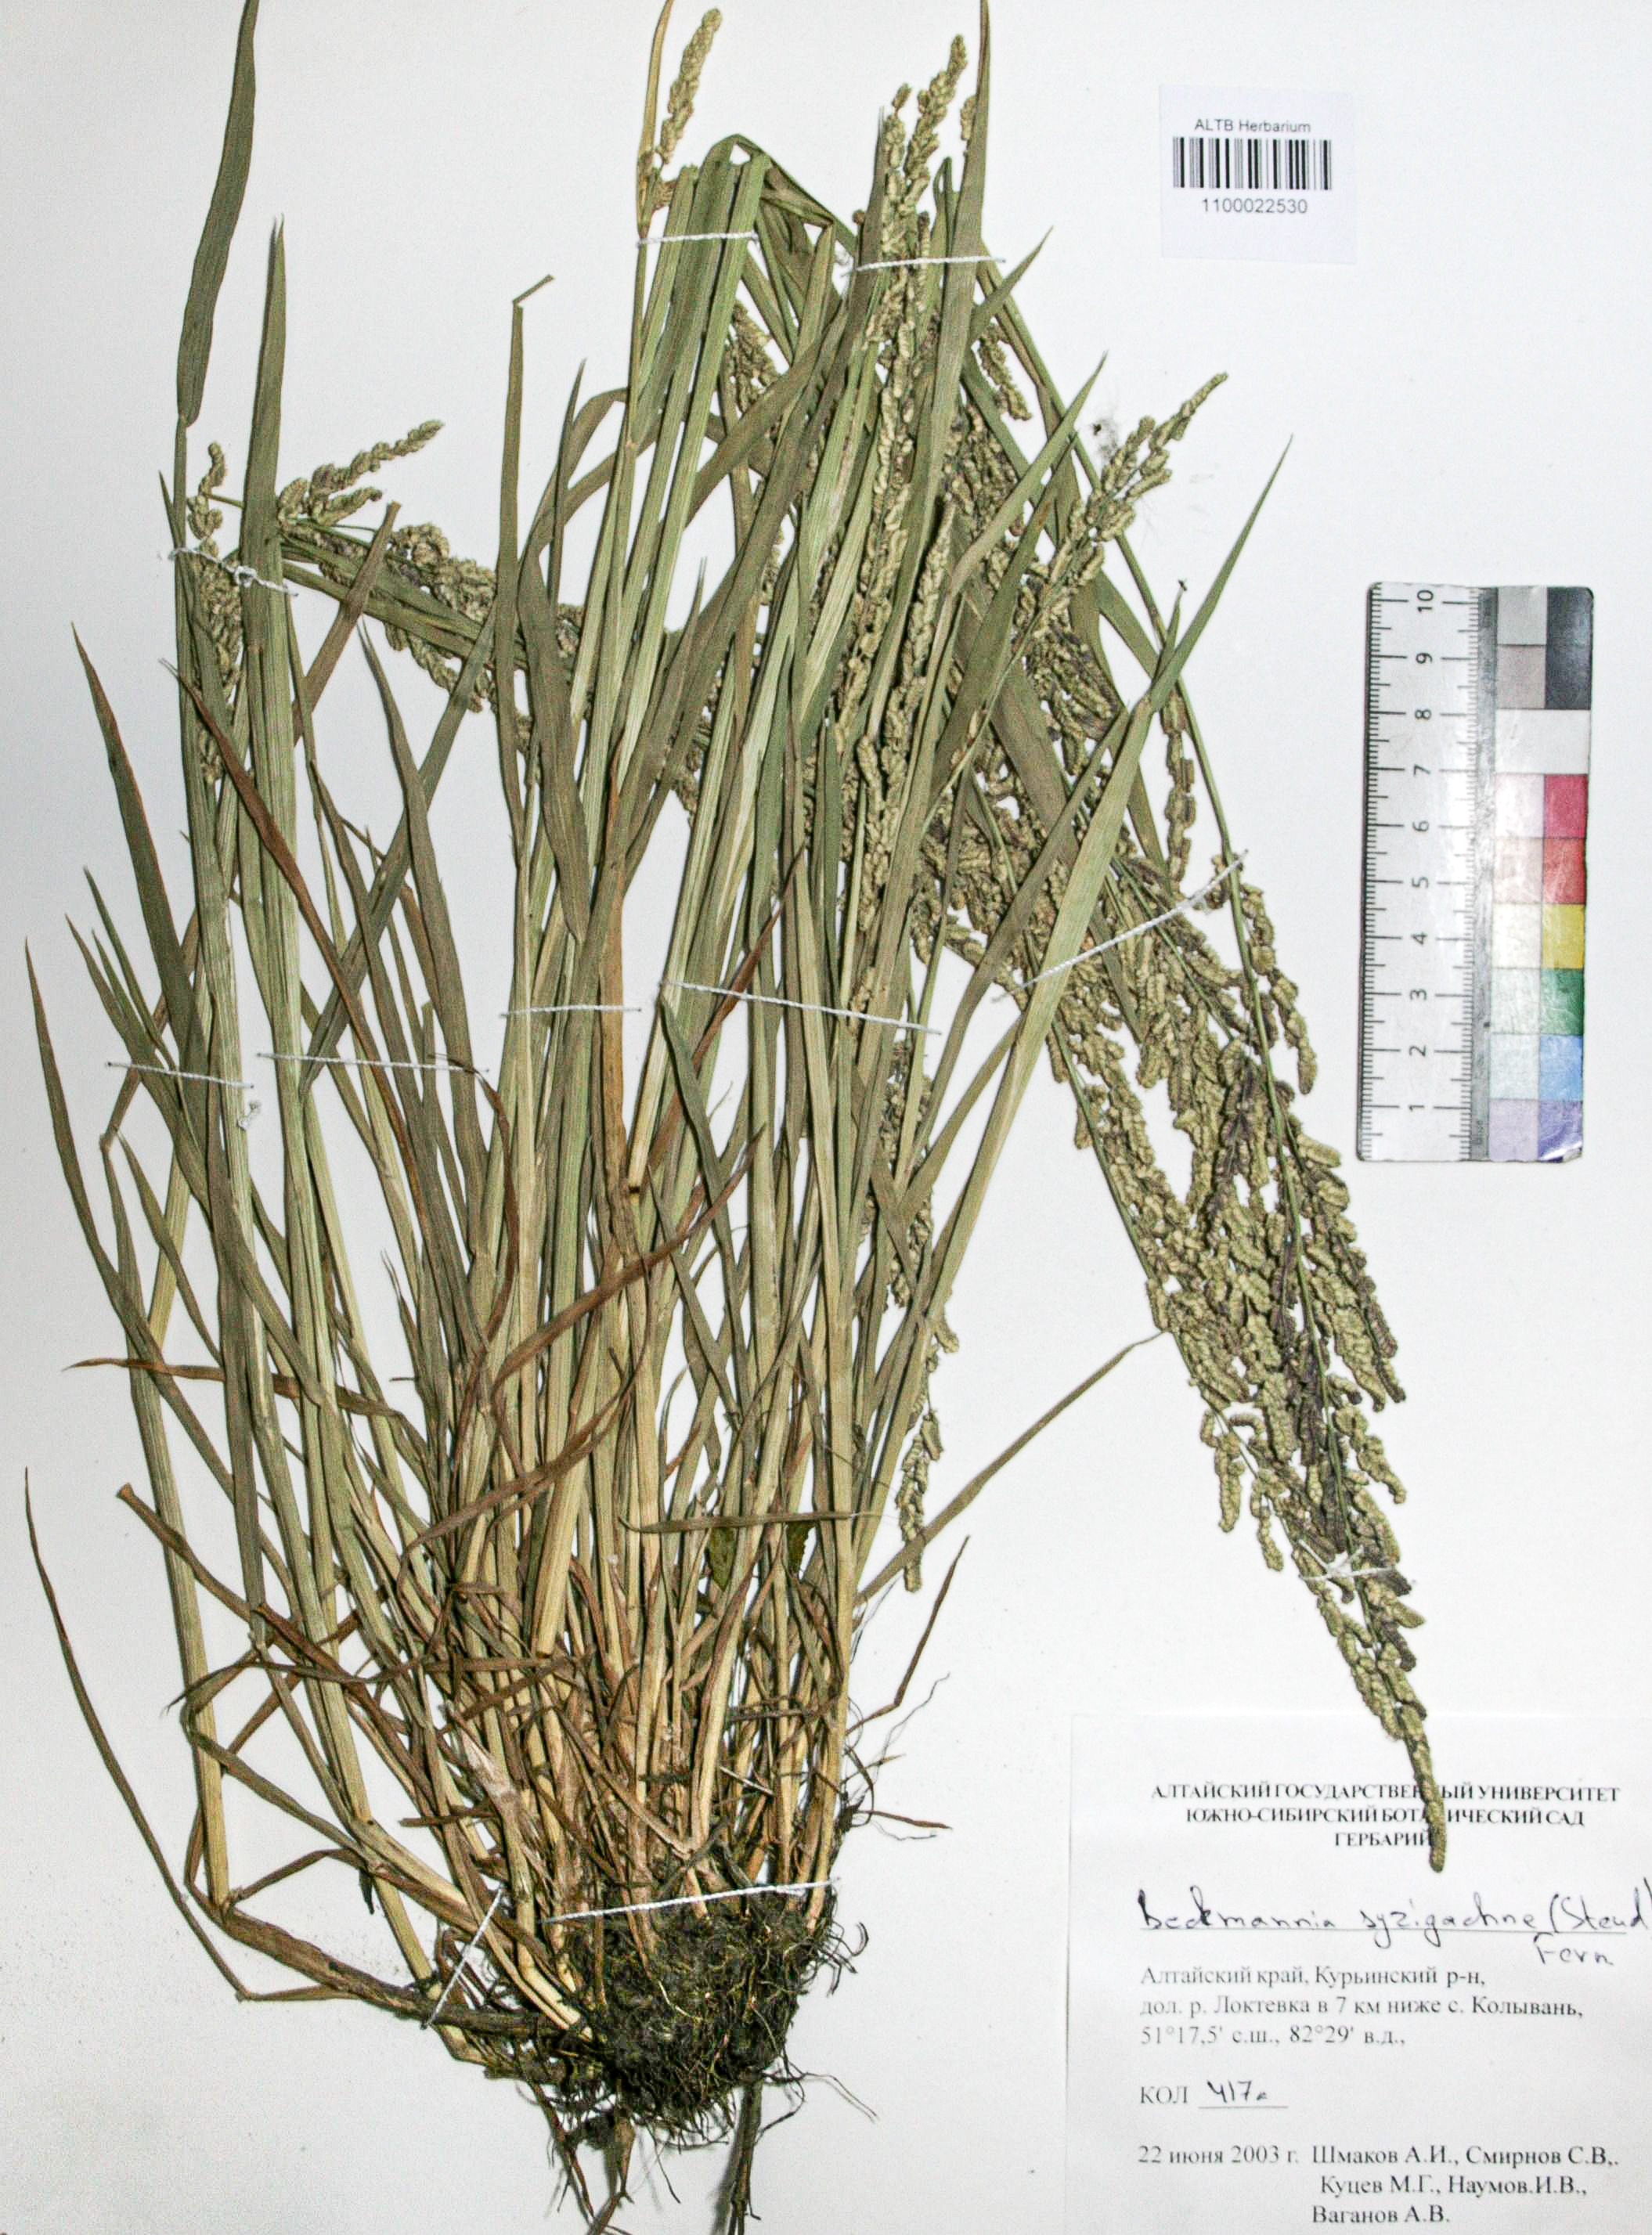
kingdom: Plantae
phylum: Tracheophyta
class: Liliopsida
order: Poales
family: Poaceae
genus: Beckmannia
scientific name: Beckmannia syzigachne
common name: American slough-grass
